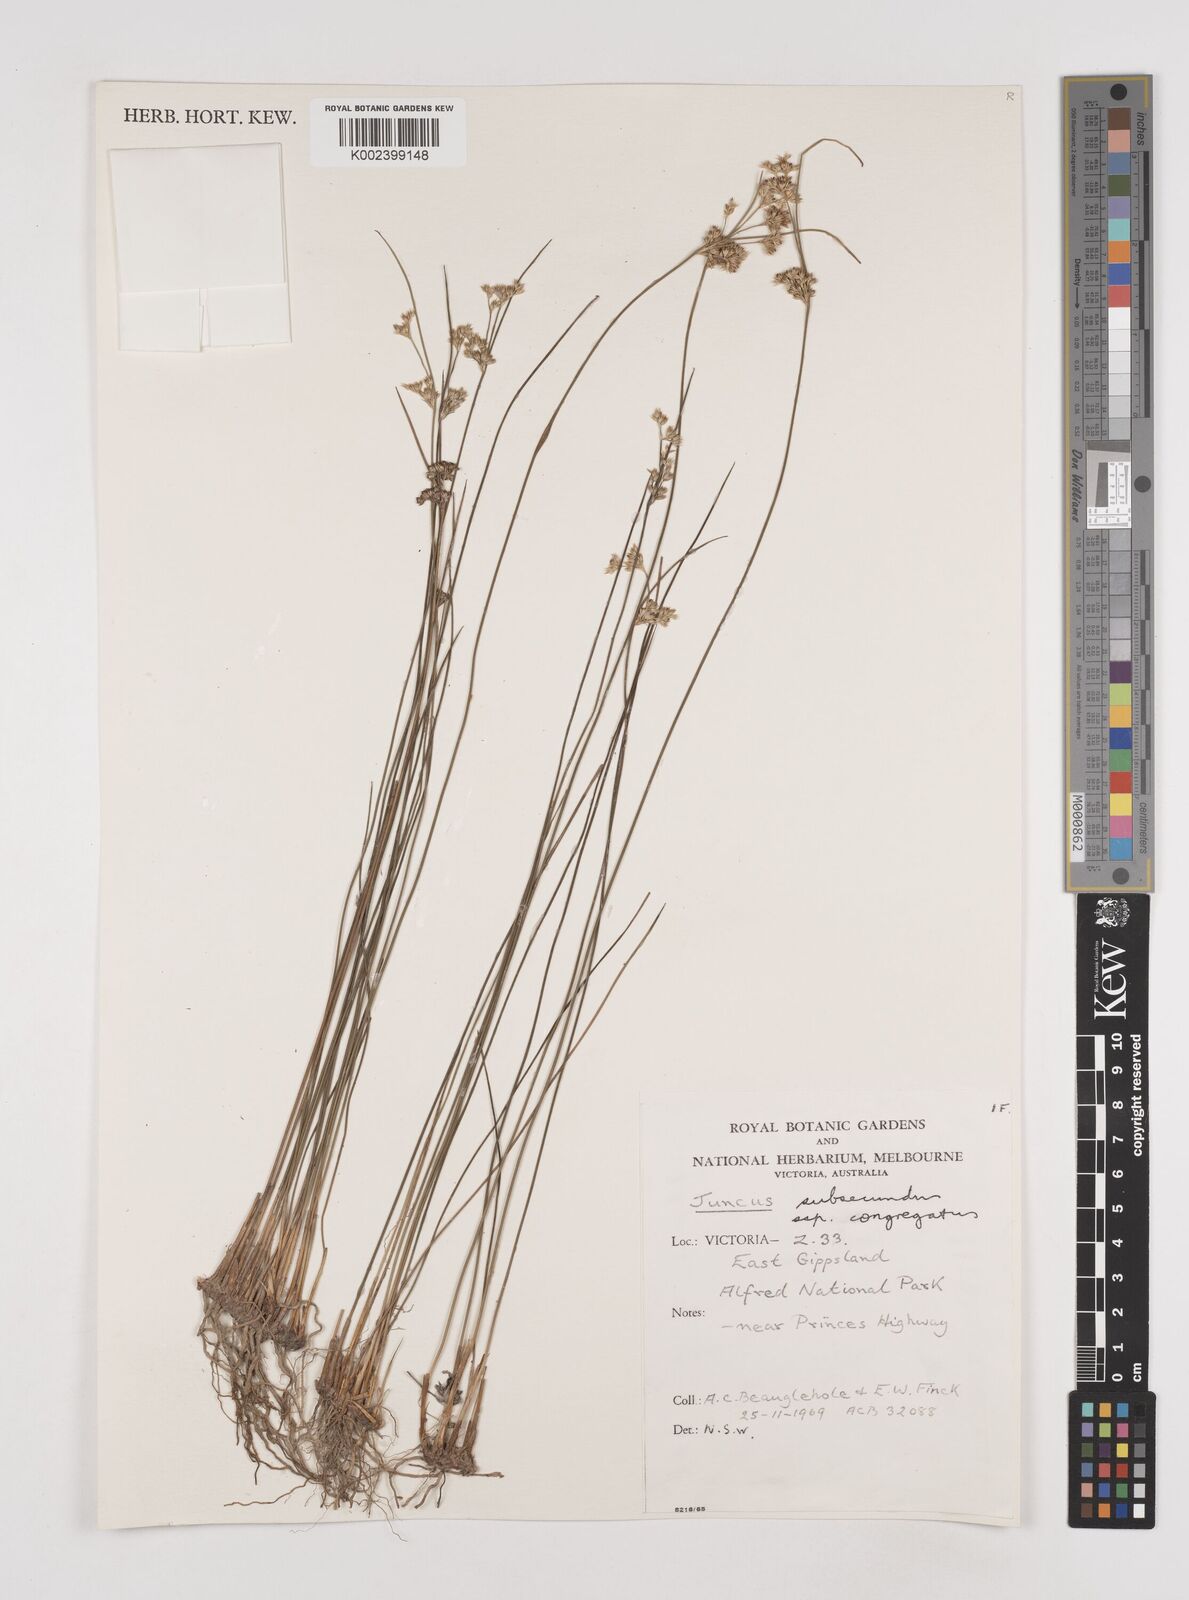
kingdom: Plantae
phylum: Tracheophyta
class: Liliopsida
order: Poales
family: Juncaceae
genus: Juncus
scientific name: Juncus subsecundus
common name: Fingered rush
